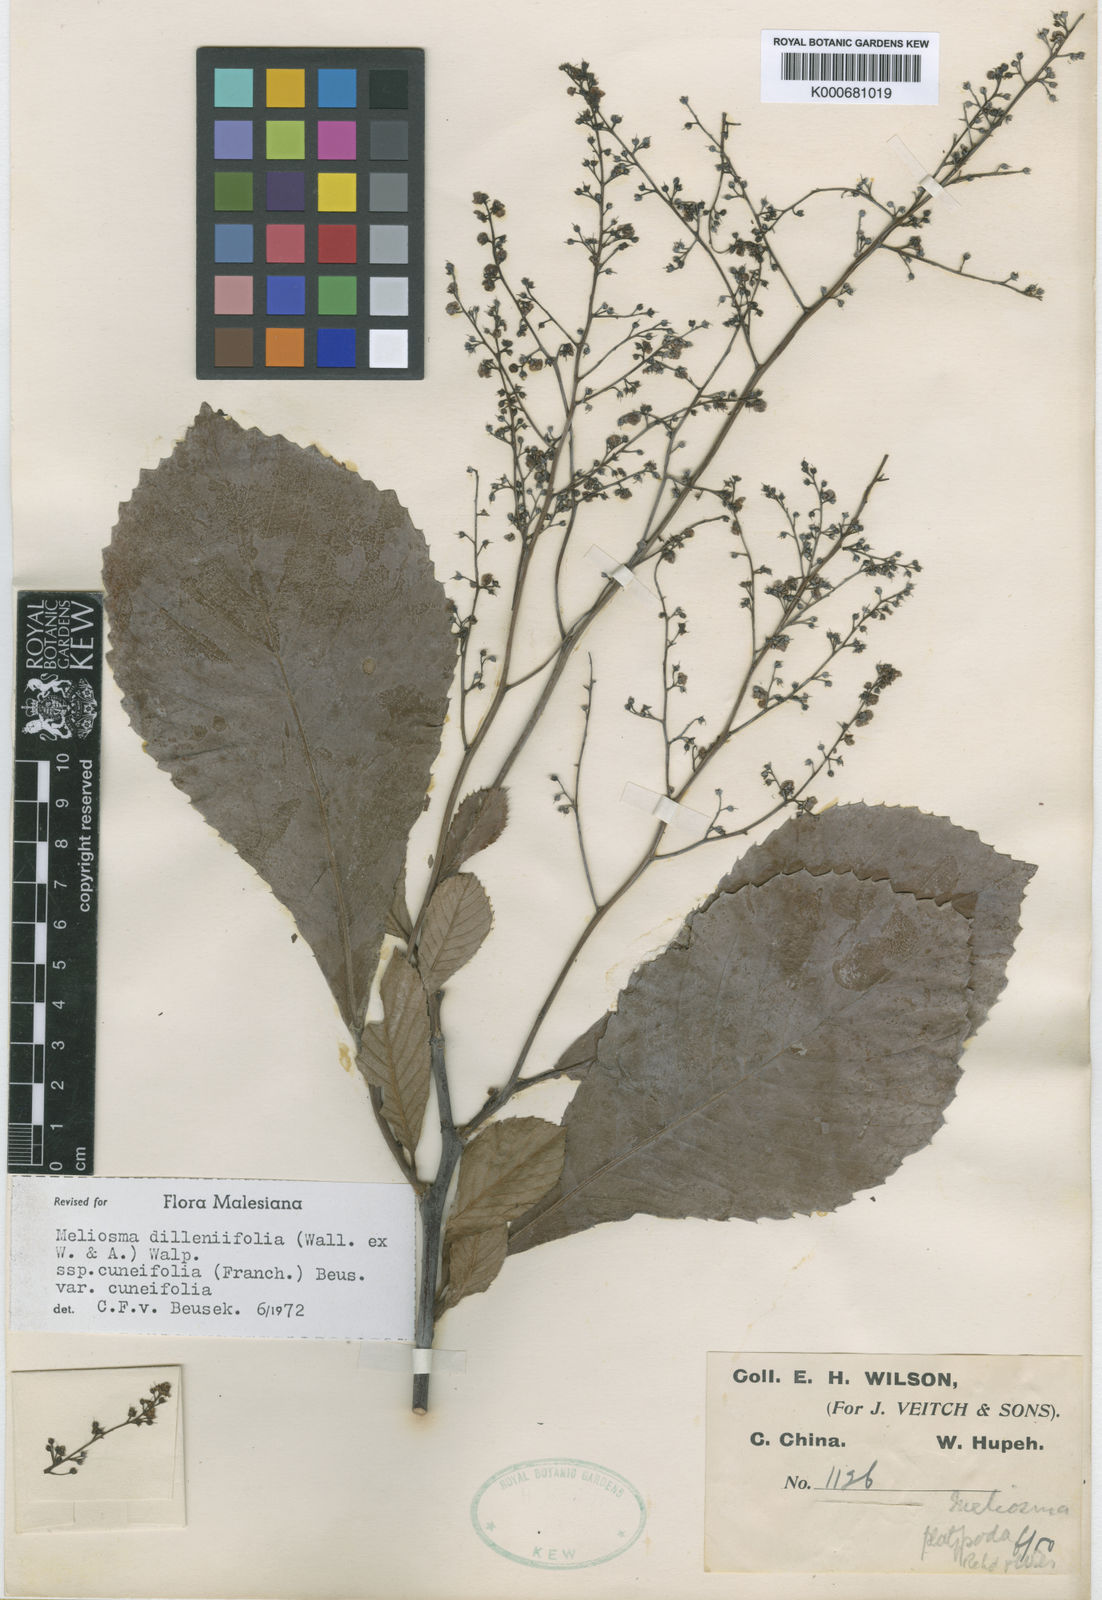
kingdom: Plantae
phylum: Tracheophyta
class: Magnoliopsida
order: Proteales
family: Sabiaceae
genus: Meliosma
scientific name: Meliosma cuneifolia
